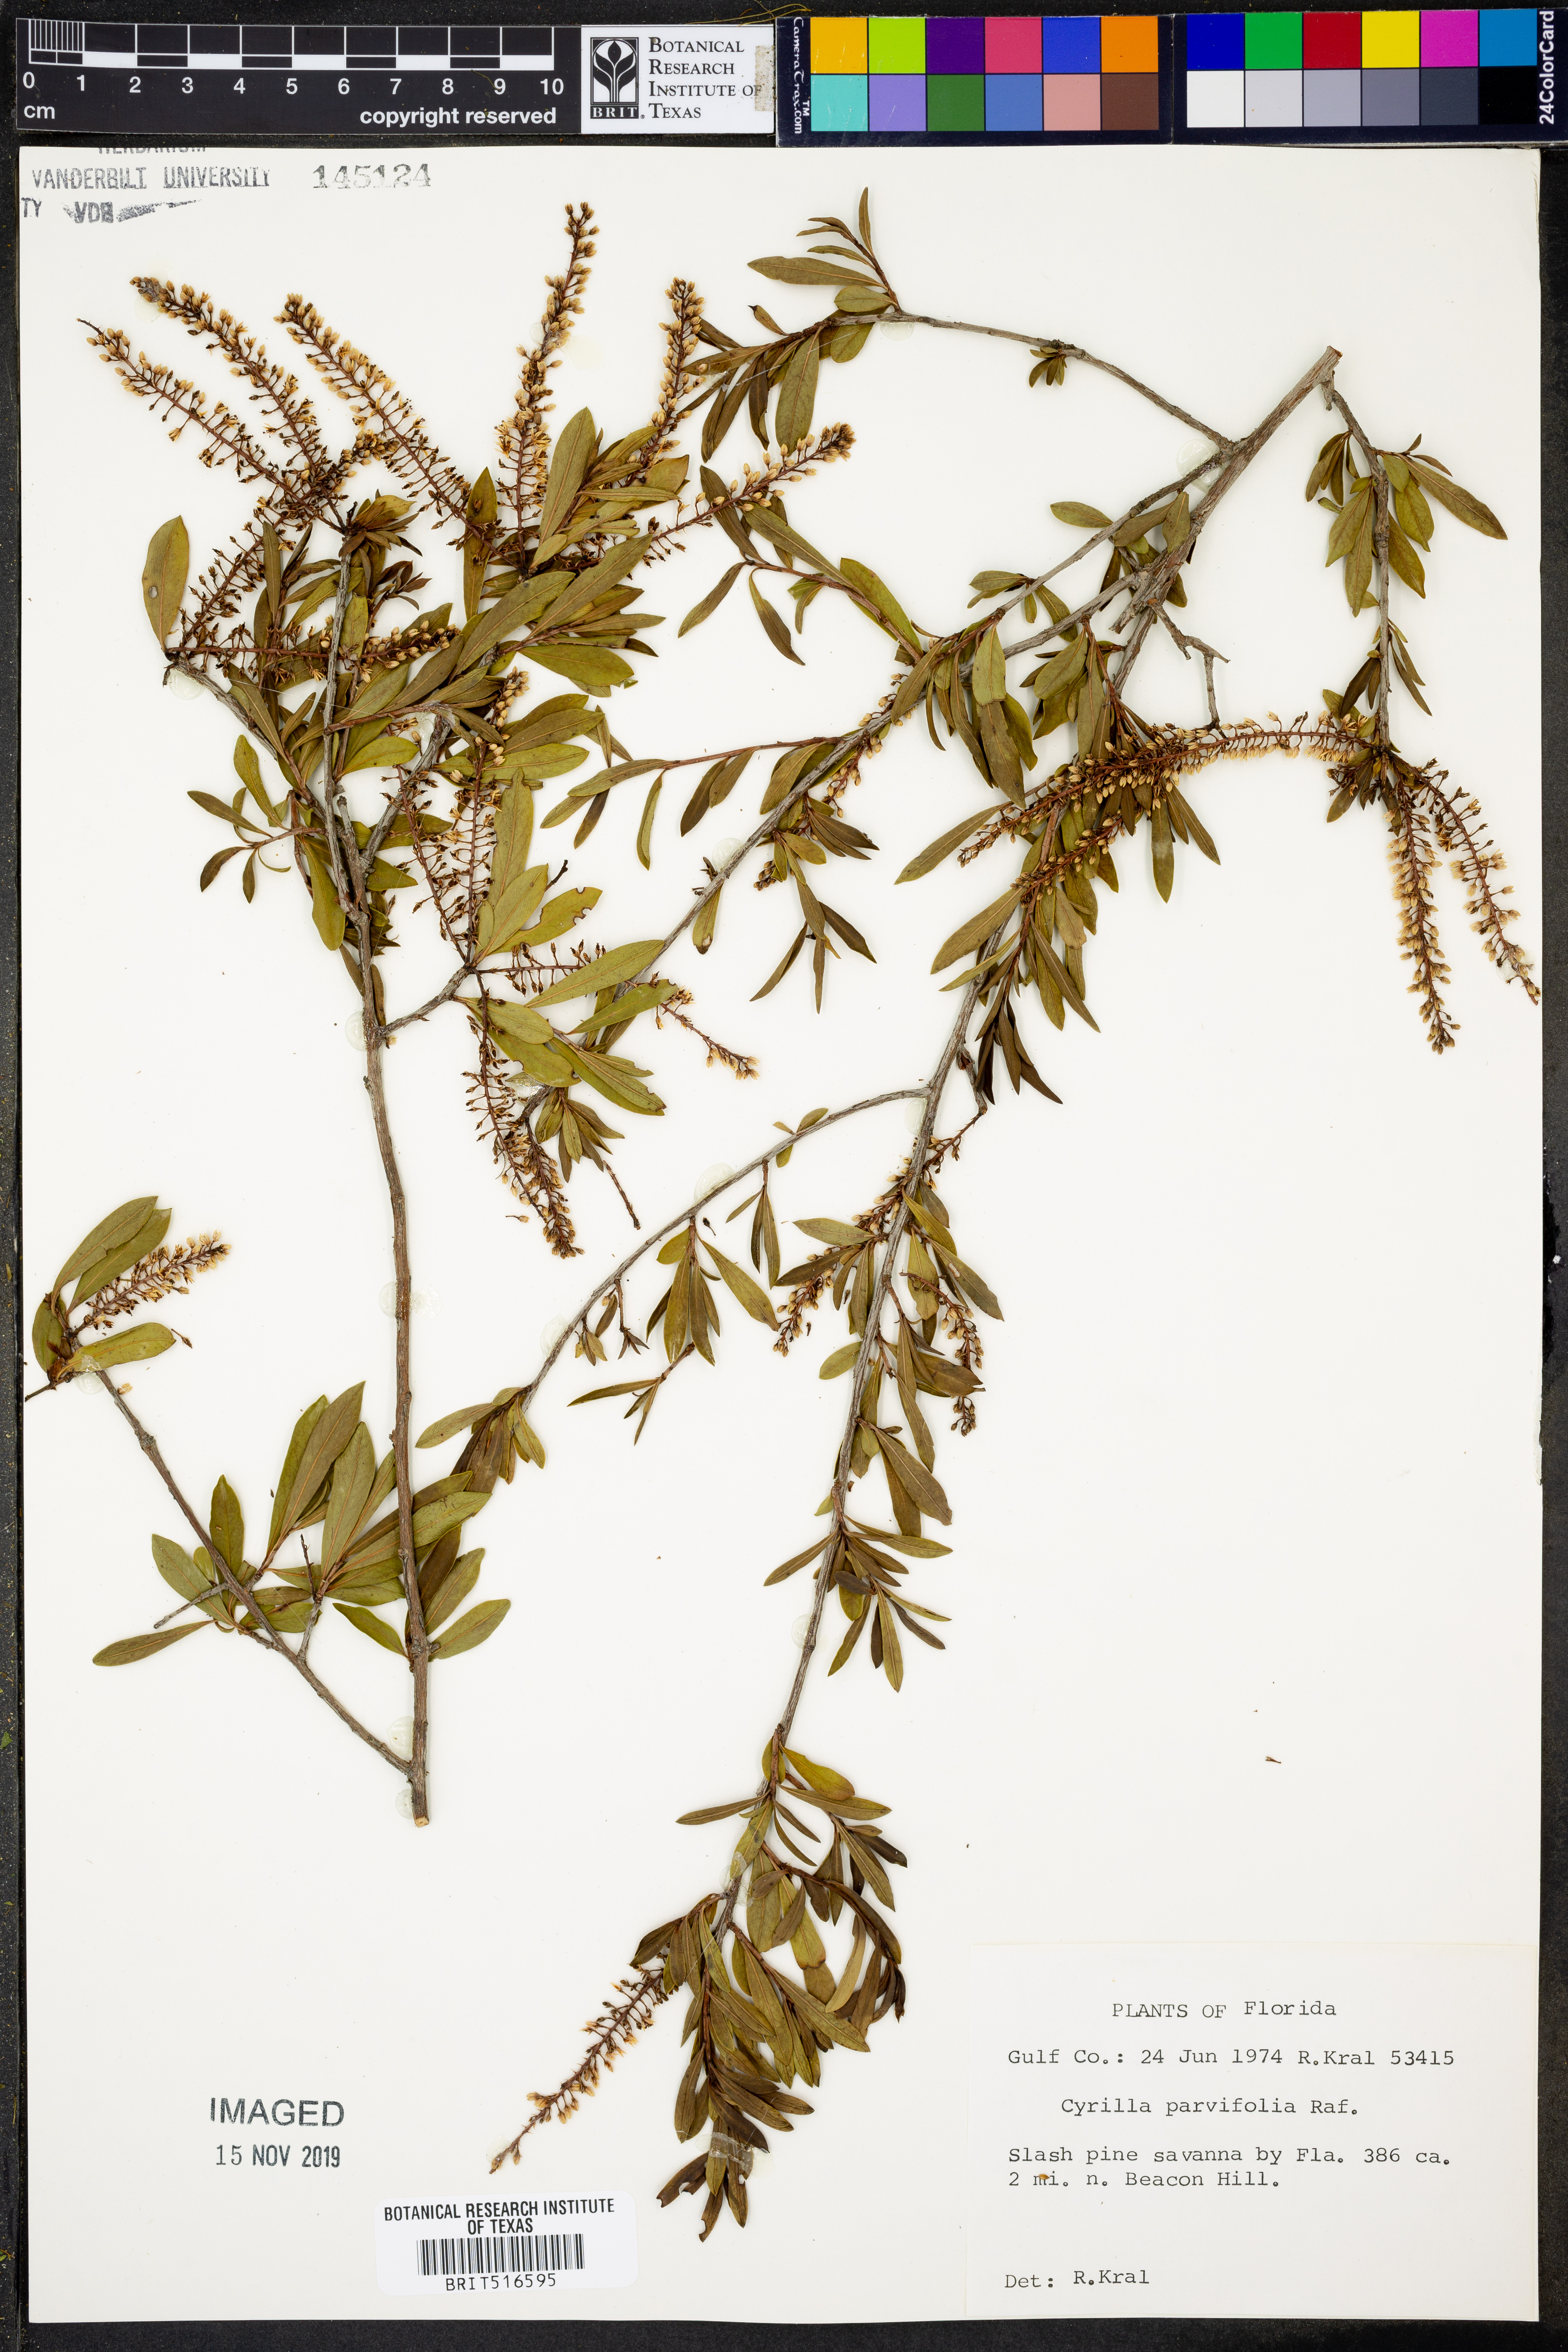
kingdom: Plantae
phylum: Tracheophyta
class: Magnoliopsida
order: Ericales
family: Cyrillaceae
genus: Cyrilla
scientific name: Cyrilla racemiflora
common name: Black titi
